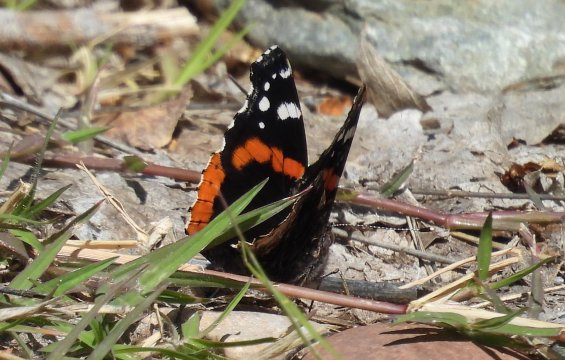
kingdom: Animalia
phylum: Arthropoda
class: Insecta
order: Lepidoptera
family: Nymphalidae
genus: Vanessa
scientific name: Vanessa atalanta
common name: Red Admiral
